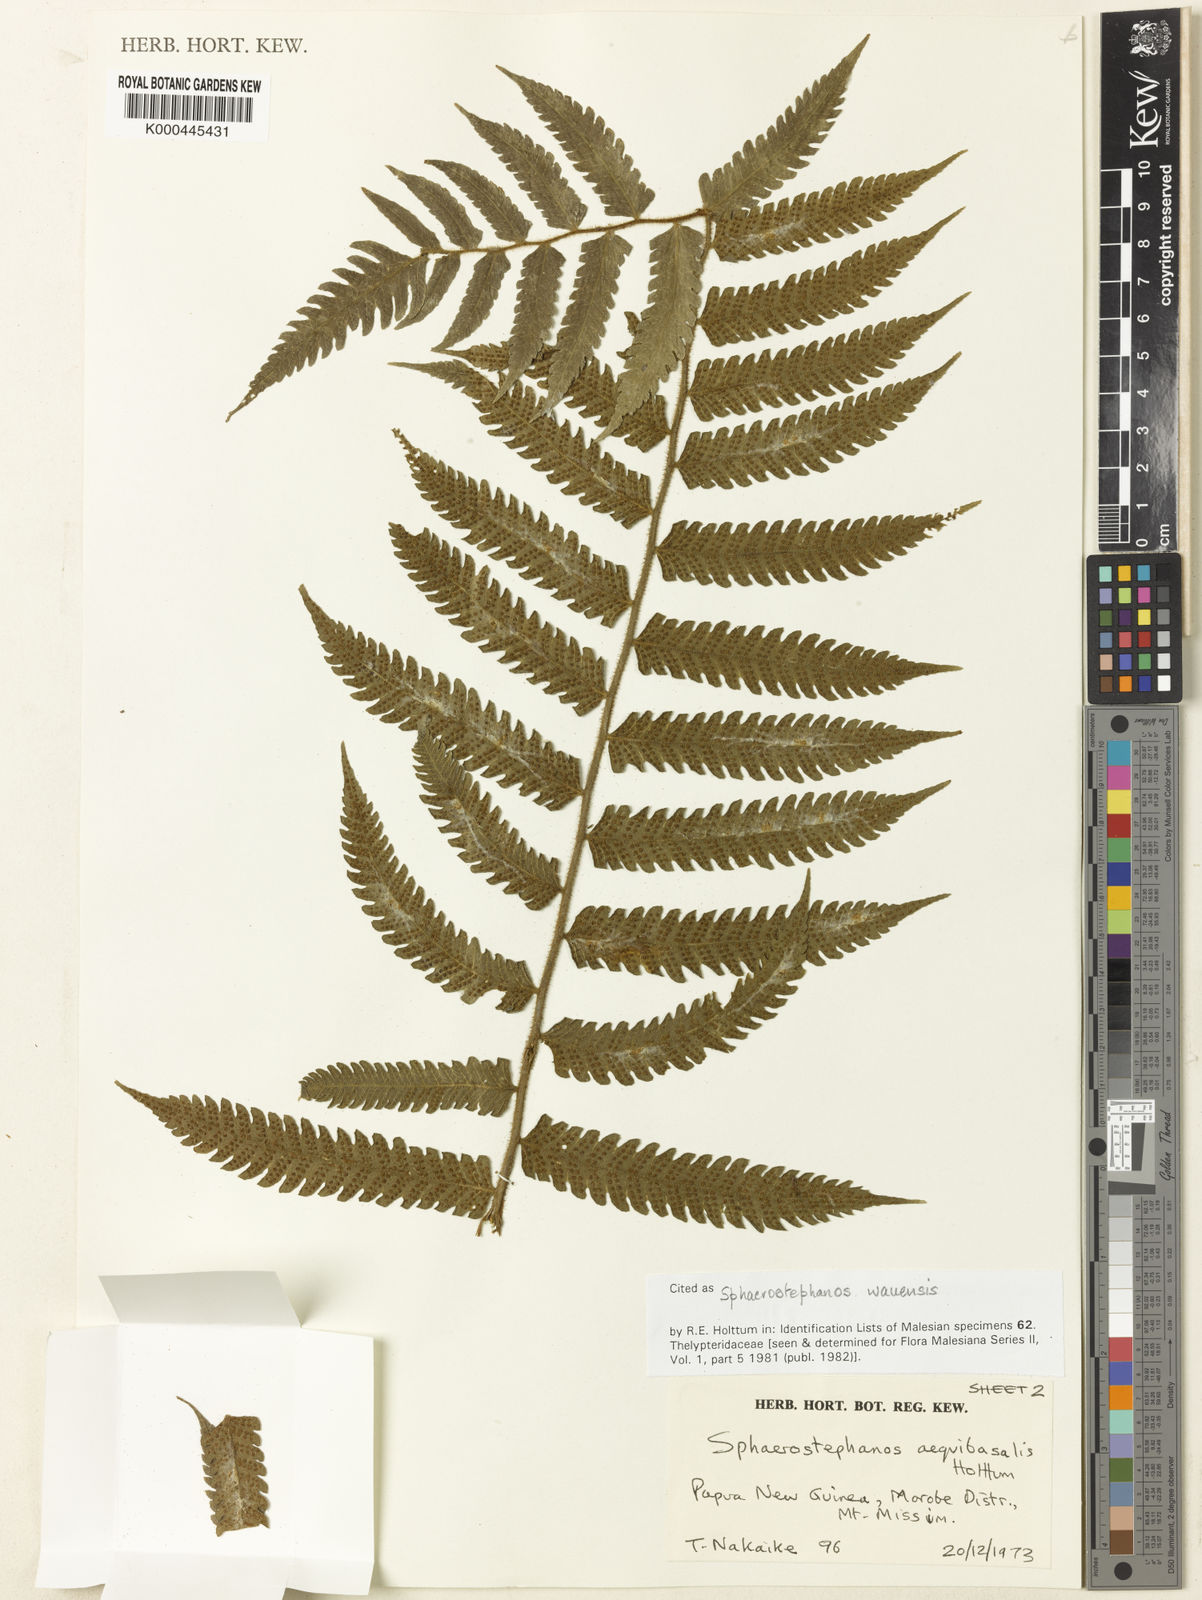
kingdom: Plantae
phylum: Tracheophyta
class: Polypodiopsida
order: Polypodiales
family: Thelypteridaceae
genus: Sphaerostephanos
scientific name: Sphaerostephanos wauensis
